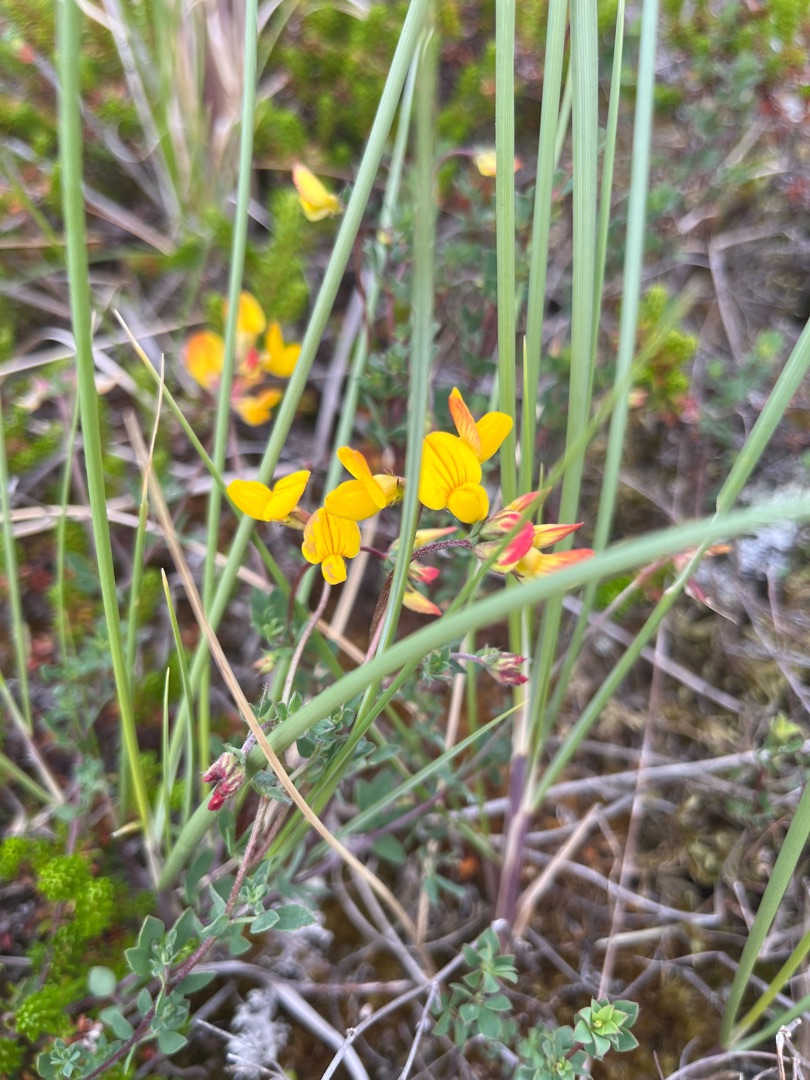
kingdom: Plantae
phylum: Tracheophyta
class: Magnoliopsida
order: Fabales
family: Fabaceae
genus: Lotus
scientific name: Lotus corniculatus
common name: Almindelig kællingetand
